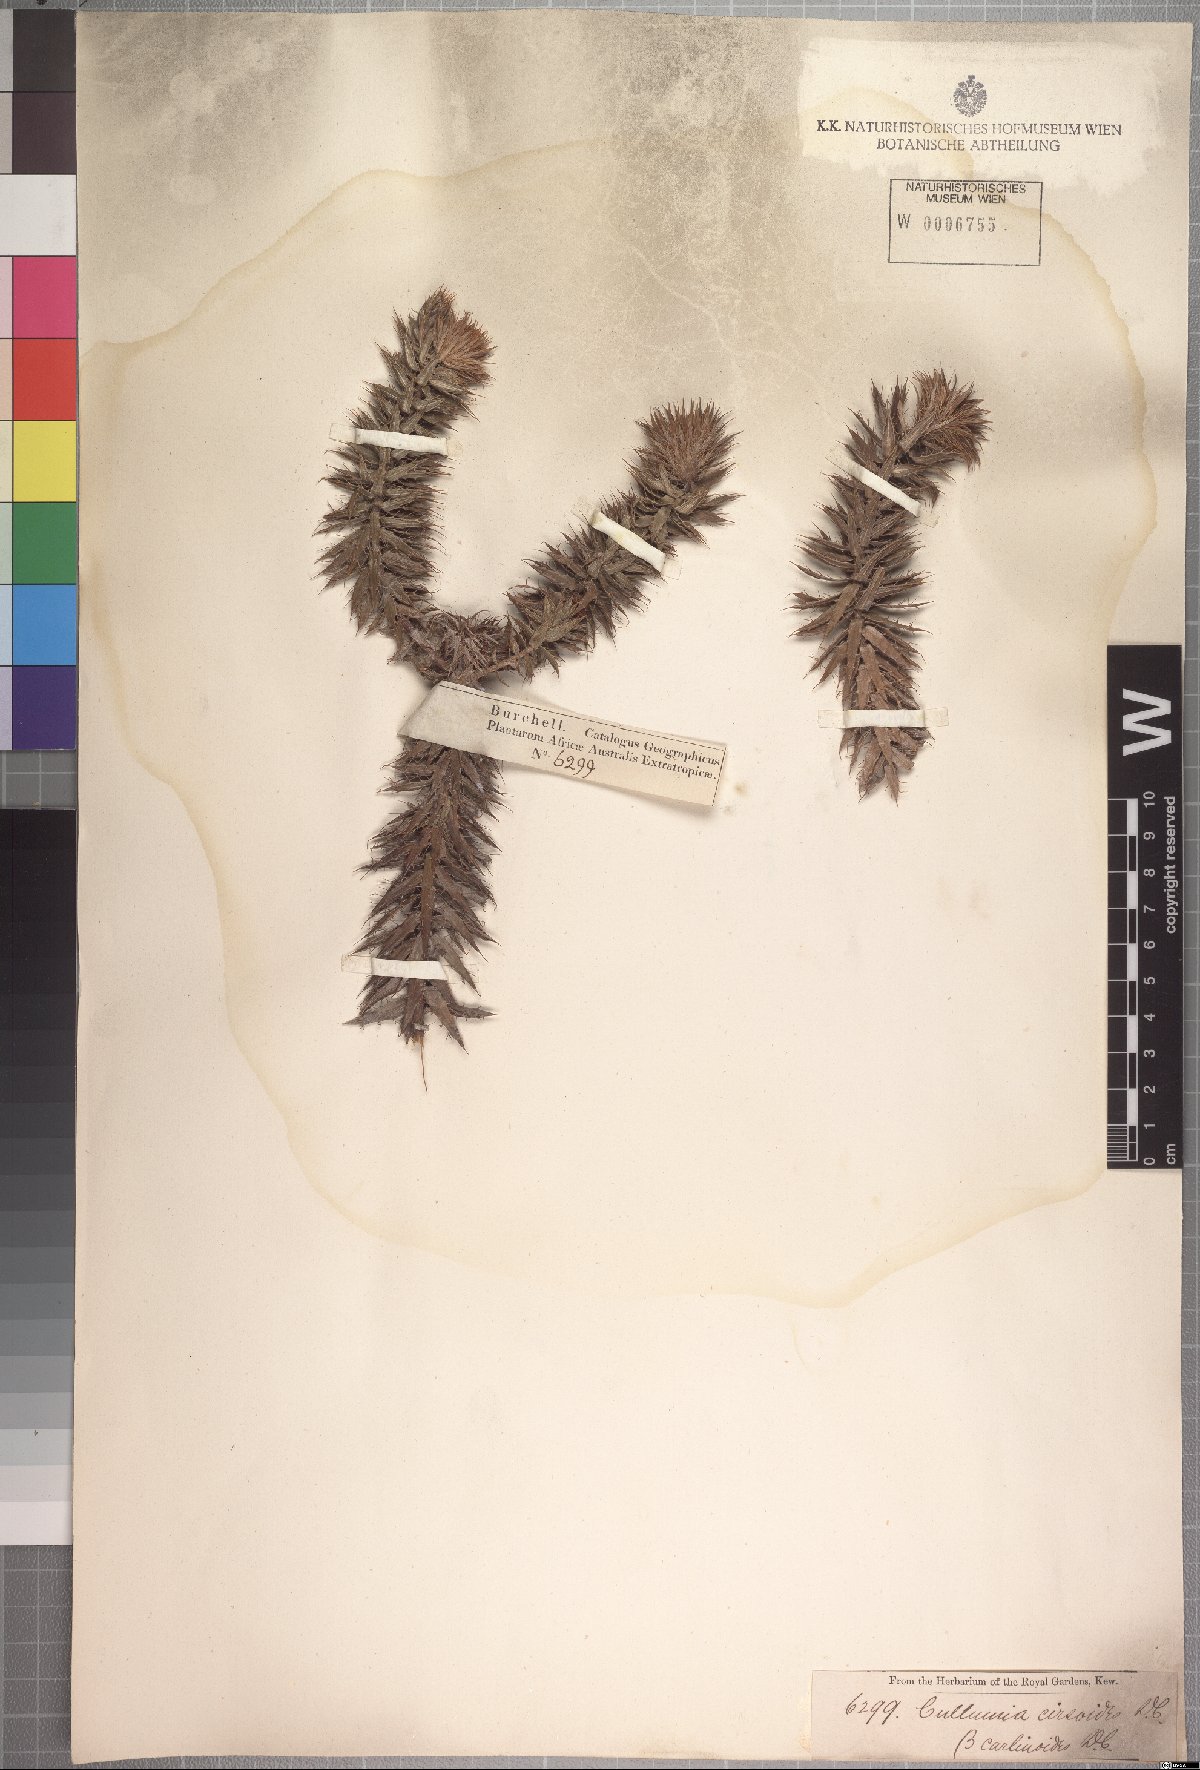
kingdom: Plantae
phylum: Tracheophyta
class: Magnoliopsida
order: Asterales
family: Asteraceae
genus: Cullumia
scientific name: Cullumia carlinoides
